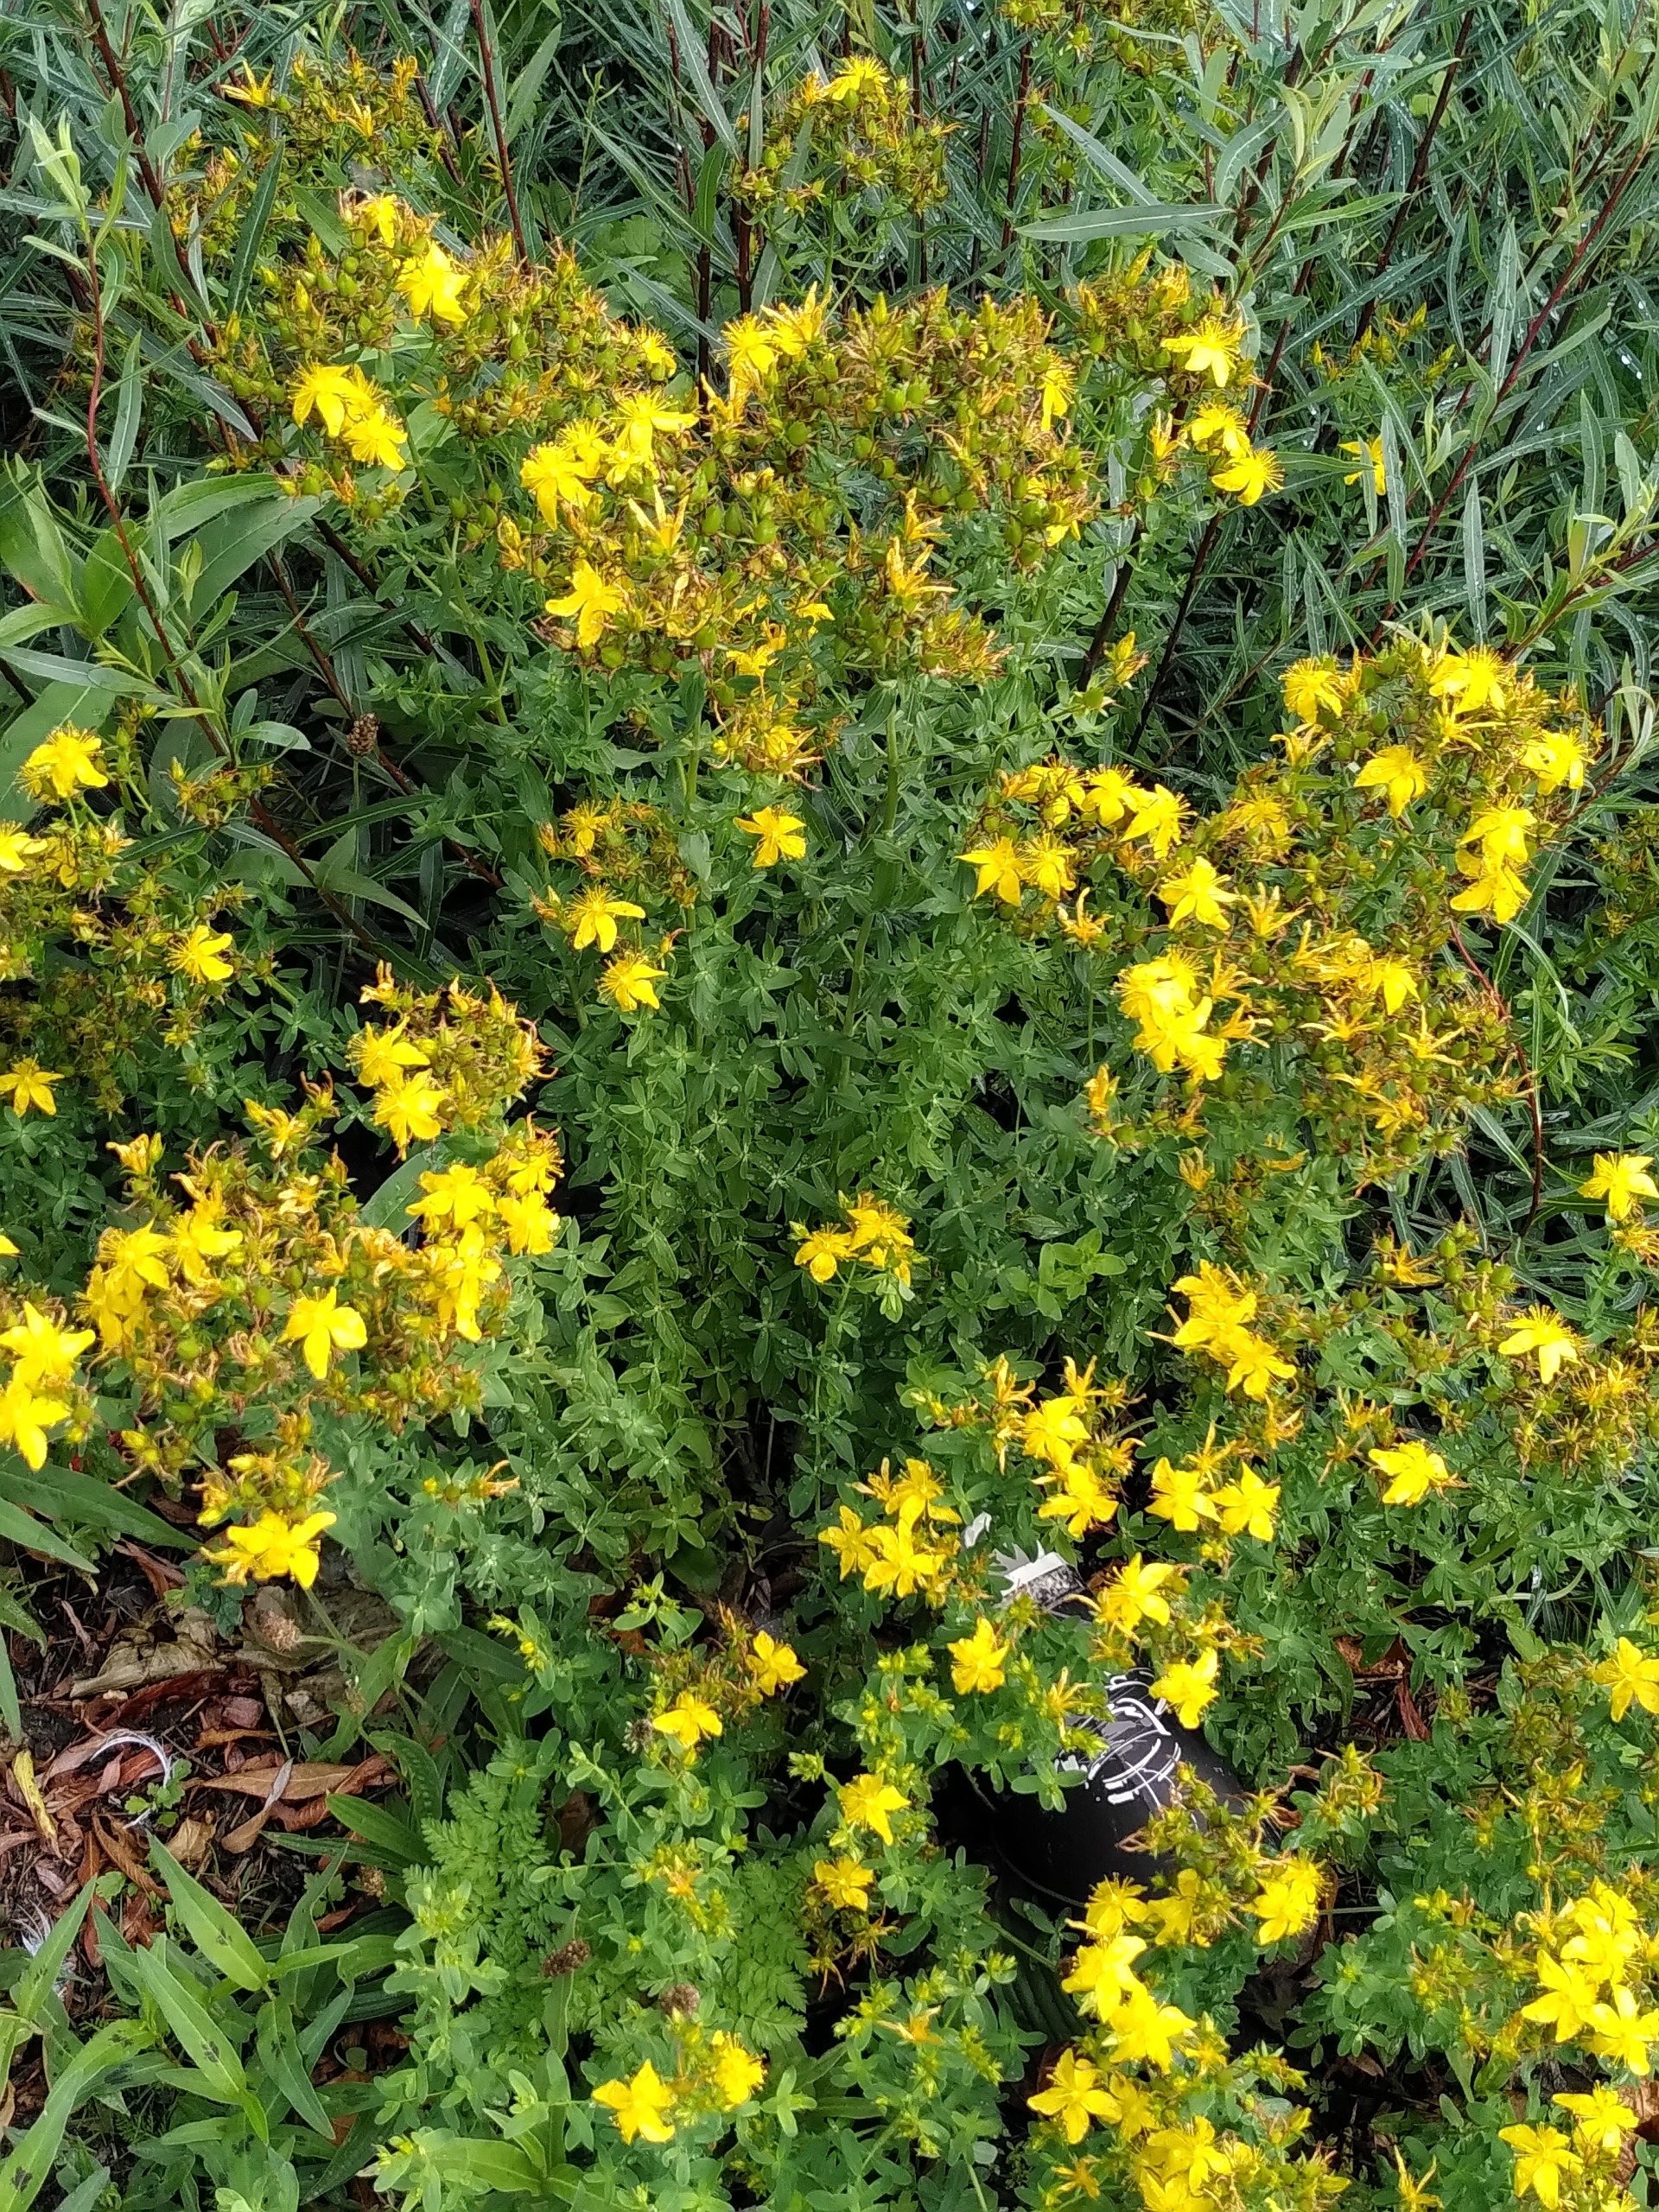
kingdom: Plantae
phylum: Tracheophyta
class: Magnoliopsida
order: Malpighiales
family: Hypericaceae
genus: Hypericum
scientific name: Hypericum perforatum
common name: Prikbladet perikon
